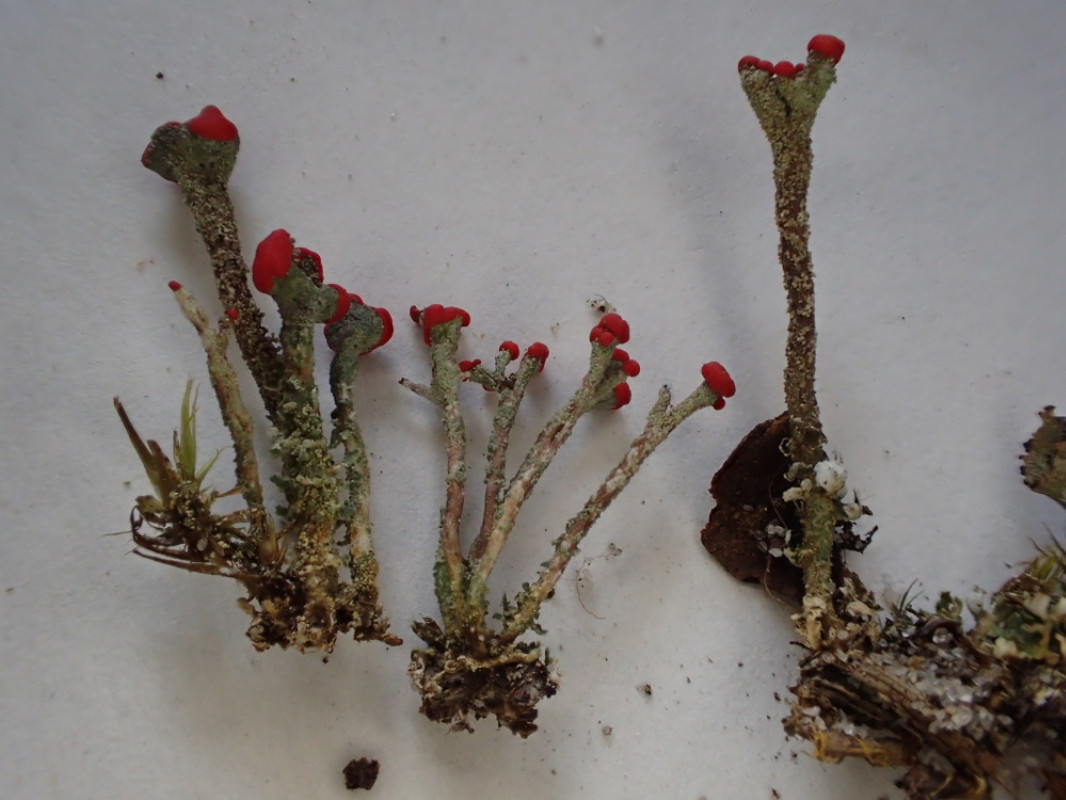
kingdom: Fungi
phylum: Ascomycota
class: Lecanoromycetes
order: Lecanorales
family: Cladoniaceae
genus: Cladonia
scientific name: Cladonia floerkeana
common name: lakrød bægerlav
